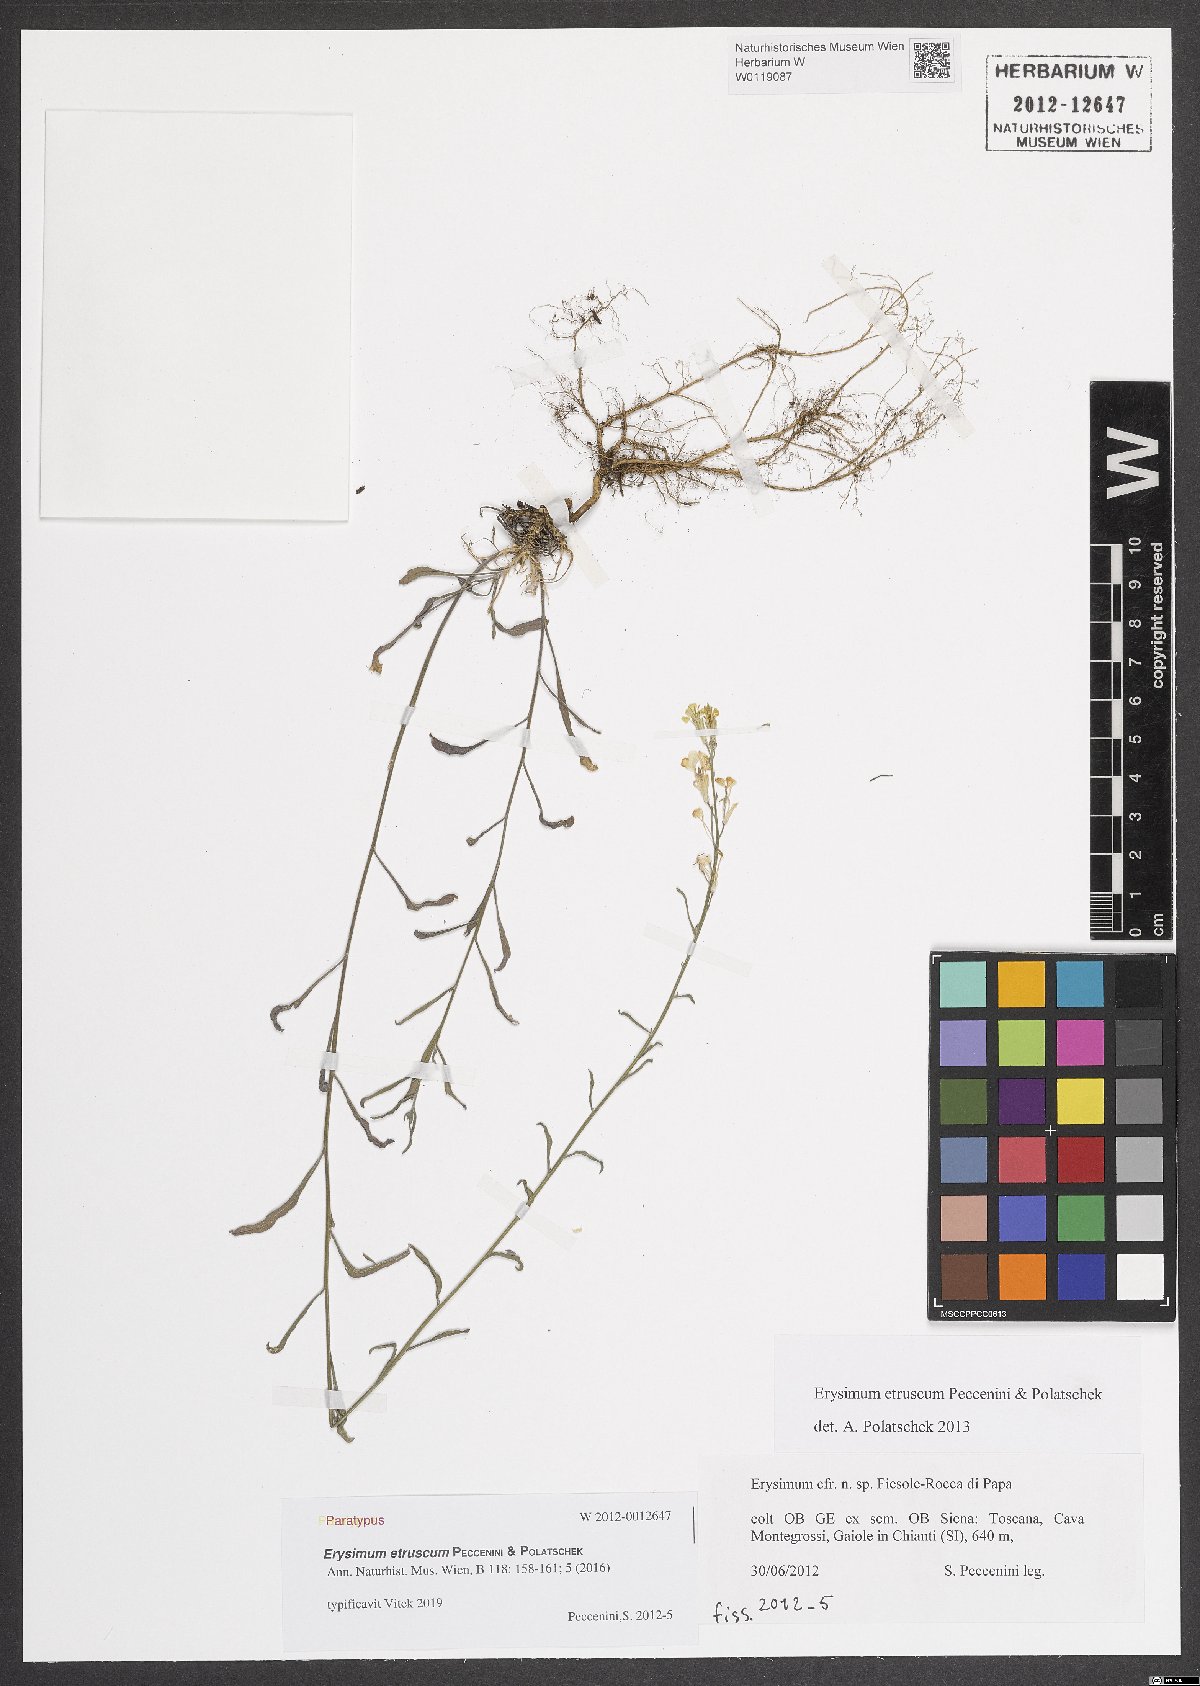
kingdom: Plantae
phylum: Tracheophyta
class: Magnoliopsida
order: Brassicales
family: Brassicaceae
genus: Erysimum
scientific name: Erysimum pseudorhaeticum
